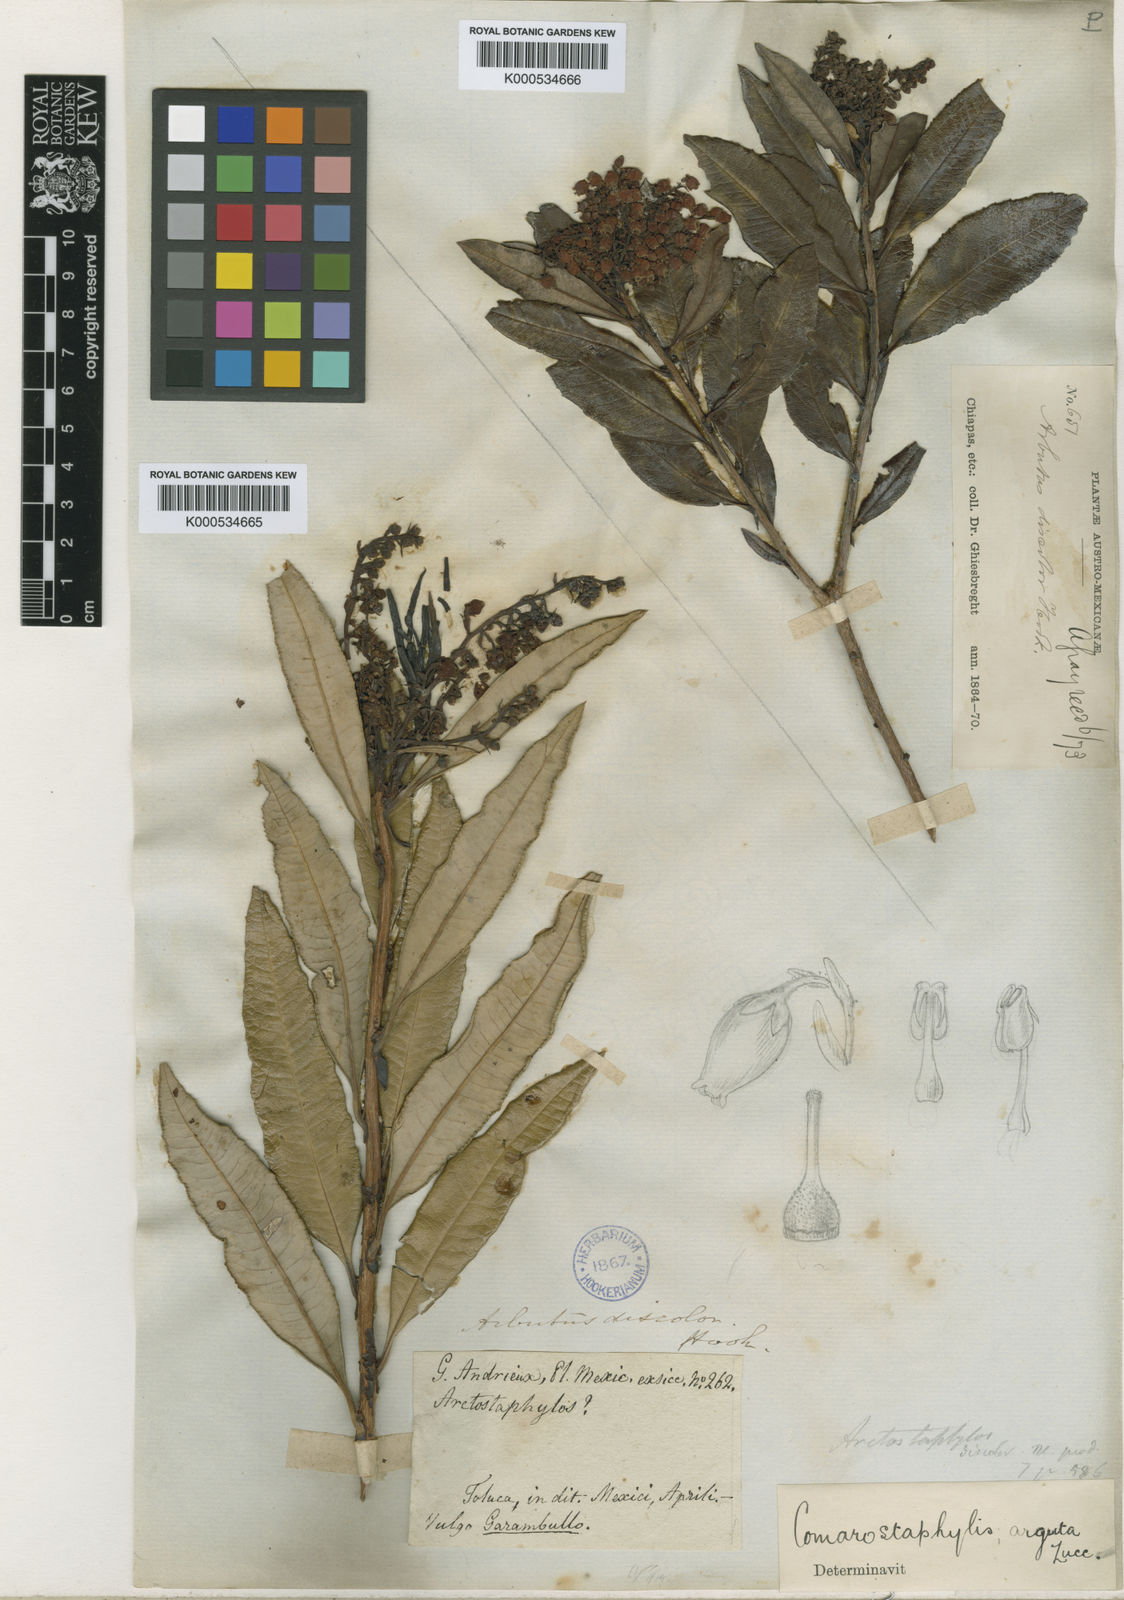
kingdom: Plantae
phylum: Tracheophyta
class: Magnoliopsida
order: Ericales
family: Ericaceae
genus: Comarostaphylis
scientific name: Comarostaphylis discolor
